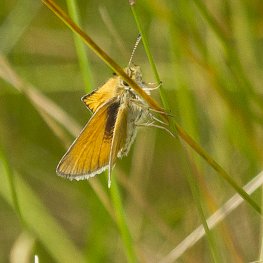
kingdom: Animalia
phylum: Arthropoda
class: Insecta
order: Lepidoptera
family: Hesperiidae
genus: Thymelicus
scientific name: Thymelicus lineola
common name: European Skipper
